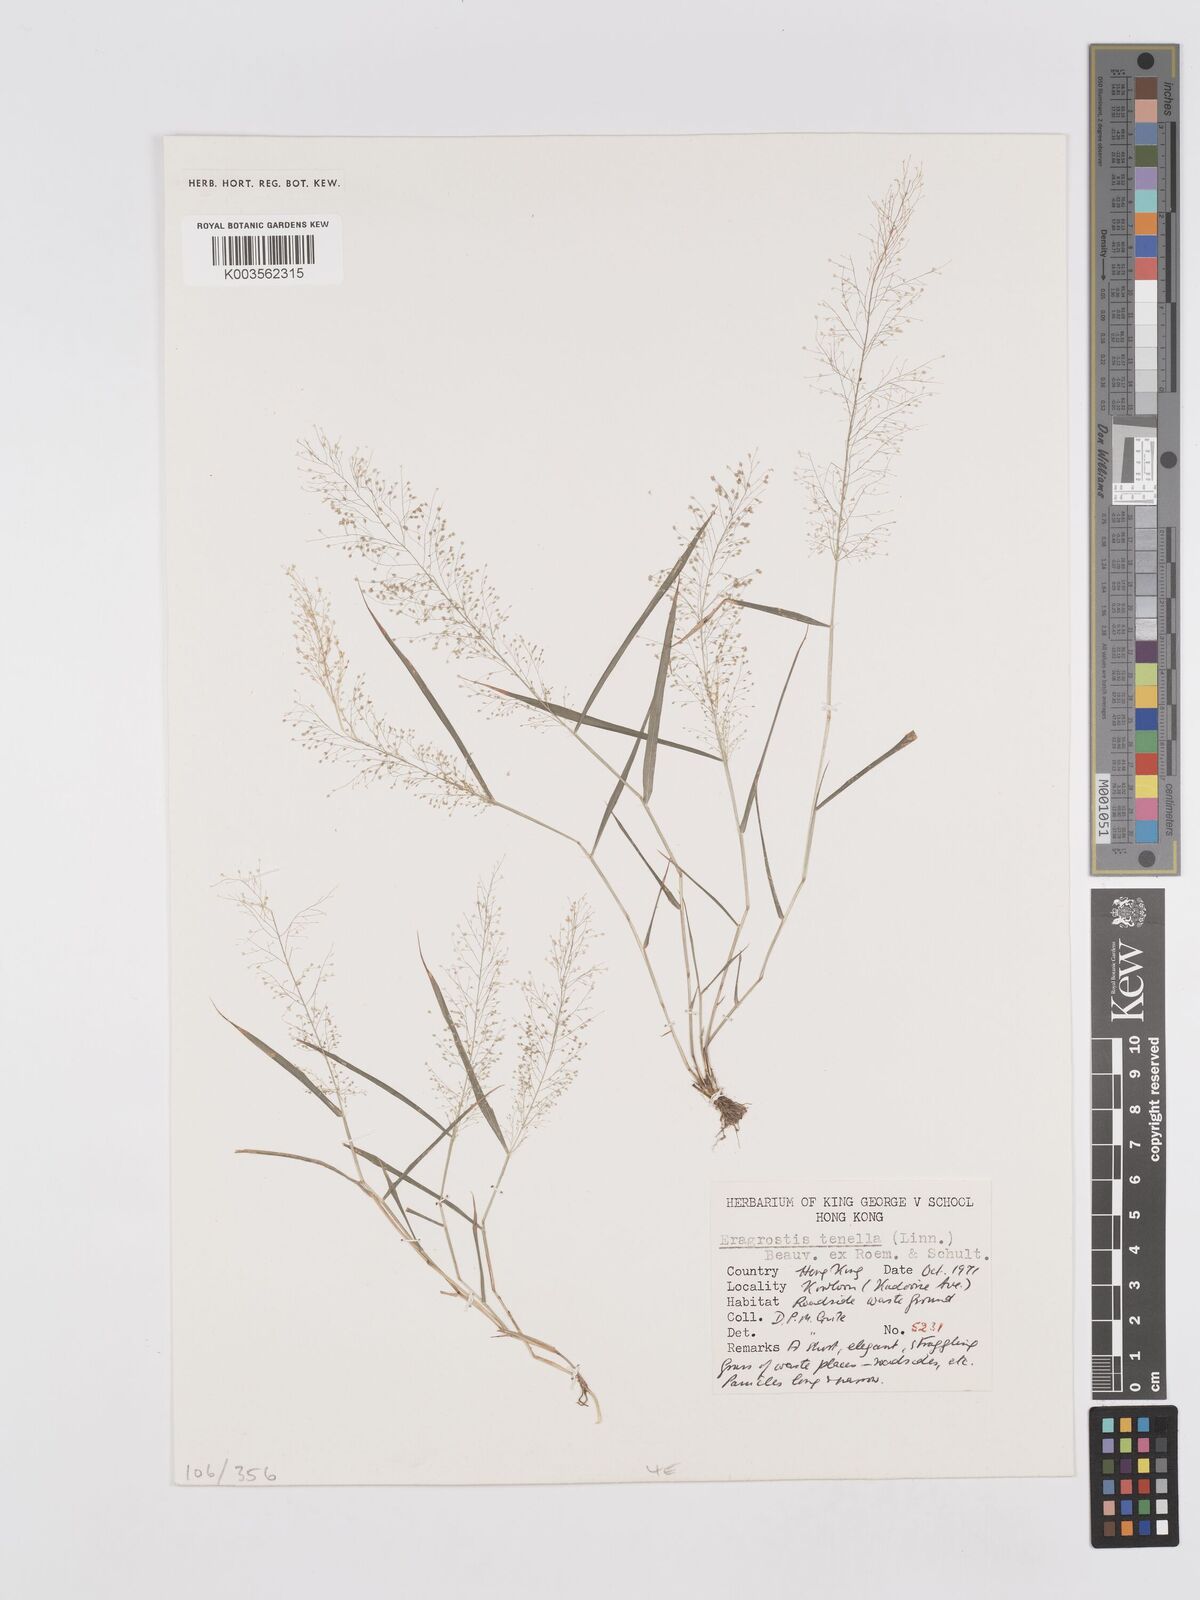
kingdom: Plantae
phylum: Tracheophyta
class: Liliopsida
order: Poales
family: Poaceae
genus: Eragrostis
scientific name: Eragrostis tenella
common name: Japanese lovegrass
